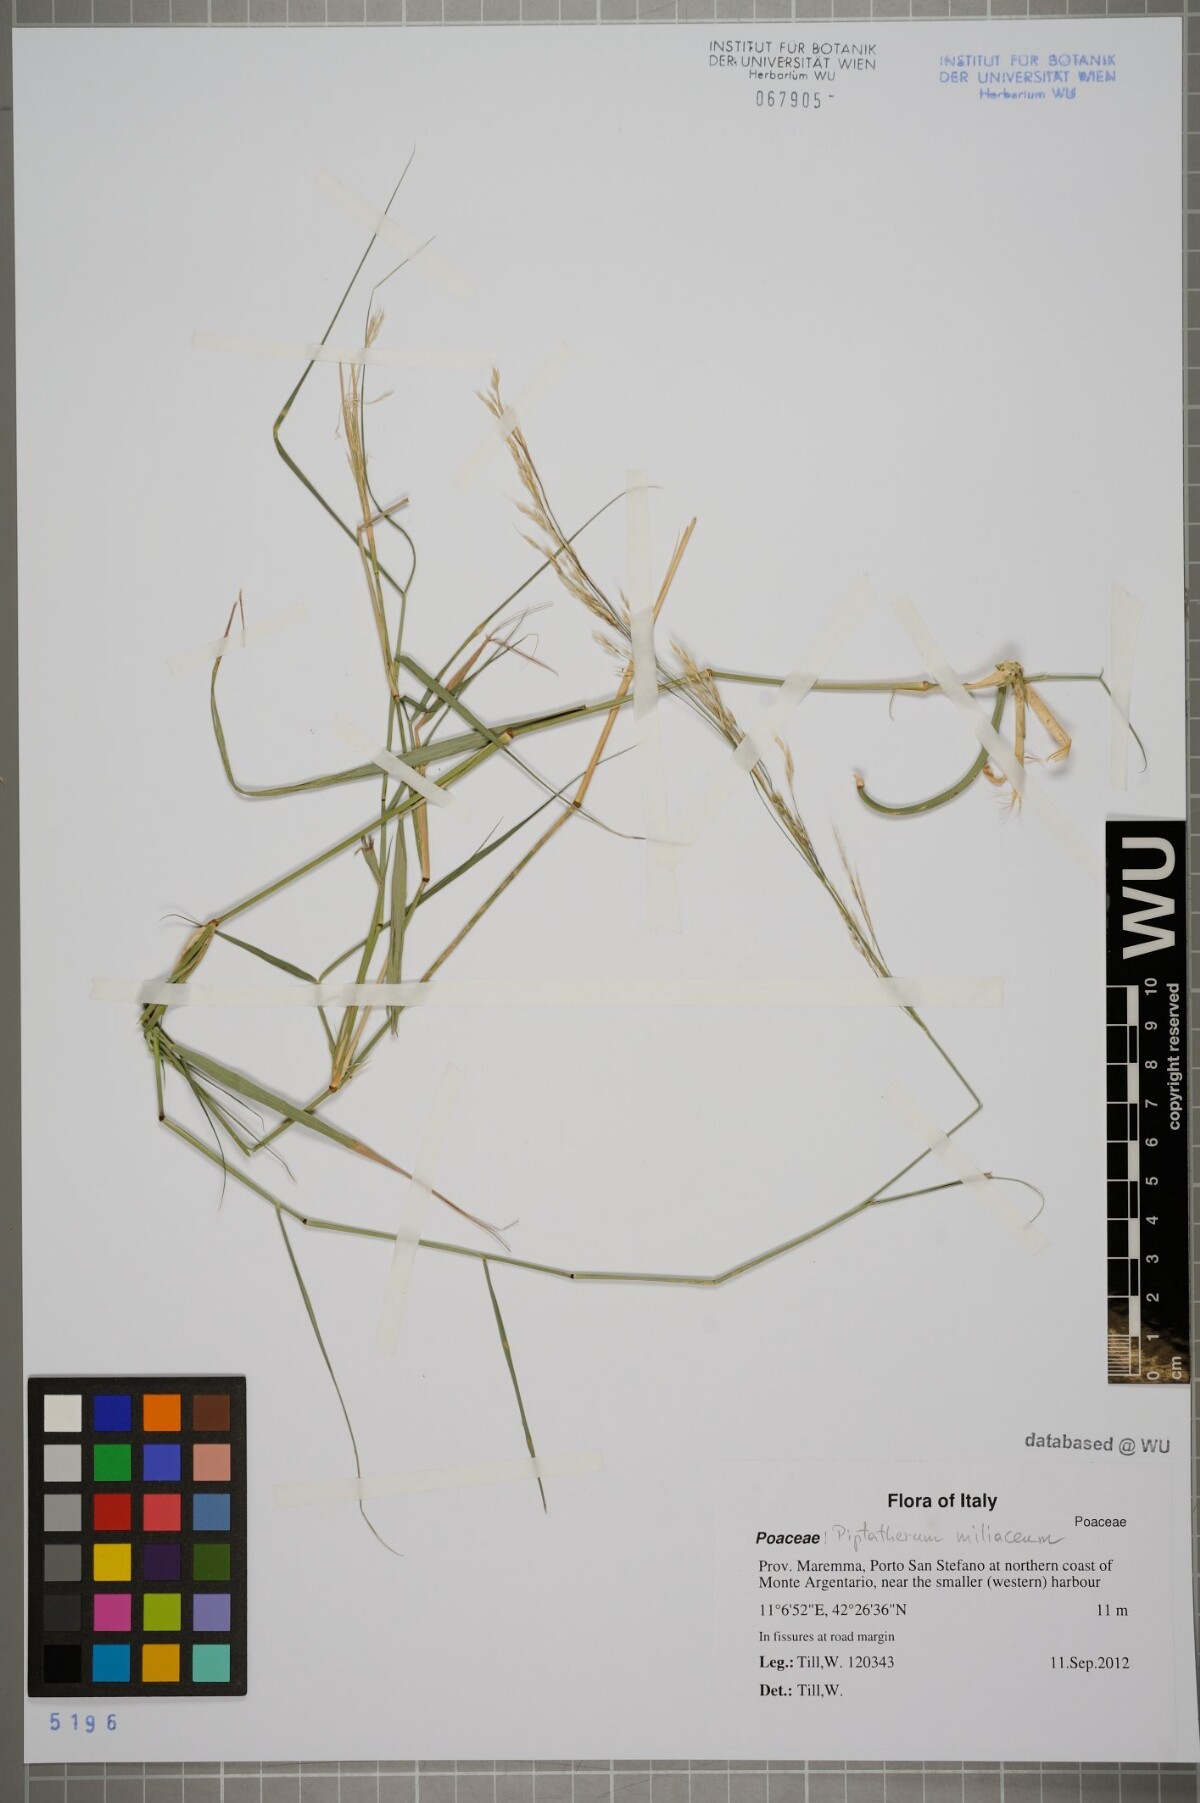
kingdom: Plantae
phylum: Tracheophyta
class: Liliopsida
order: Poales
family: Poaceae
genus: Oloptum
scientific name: Oloptum miliaceum
